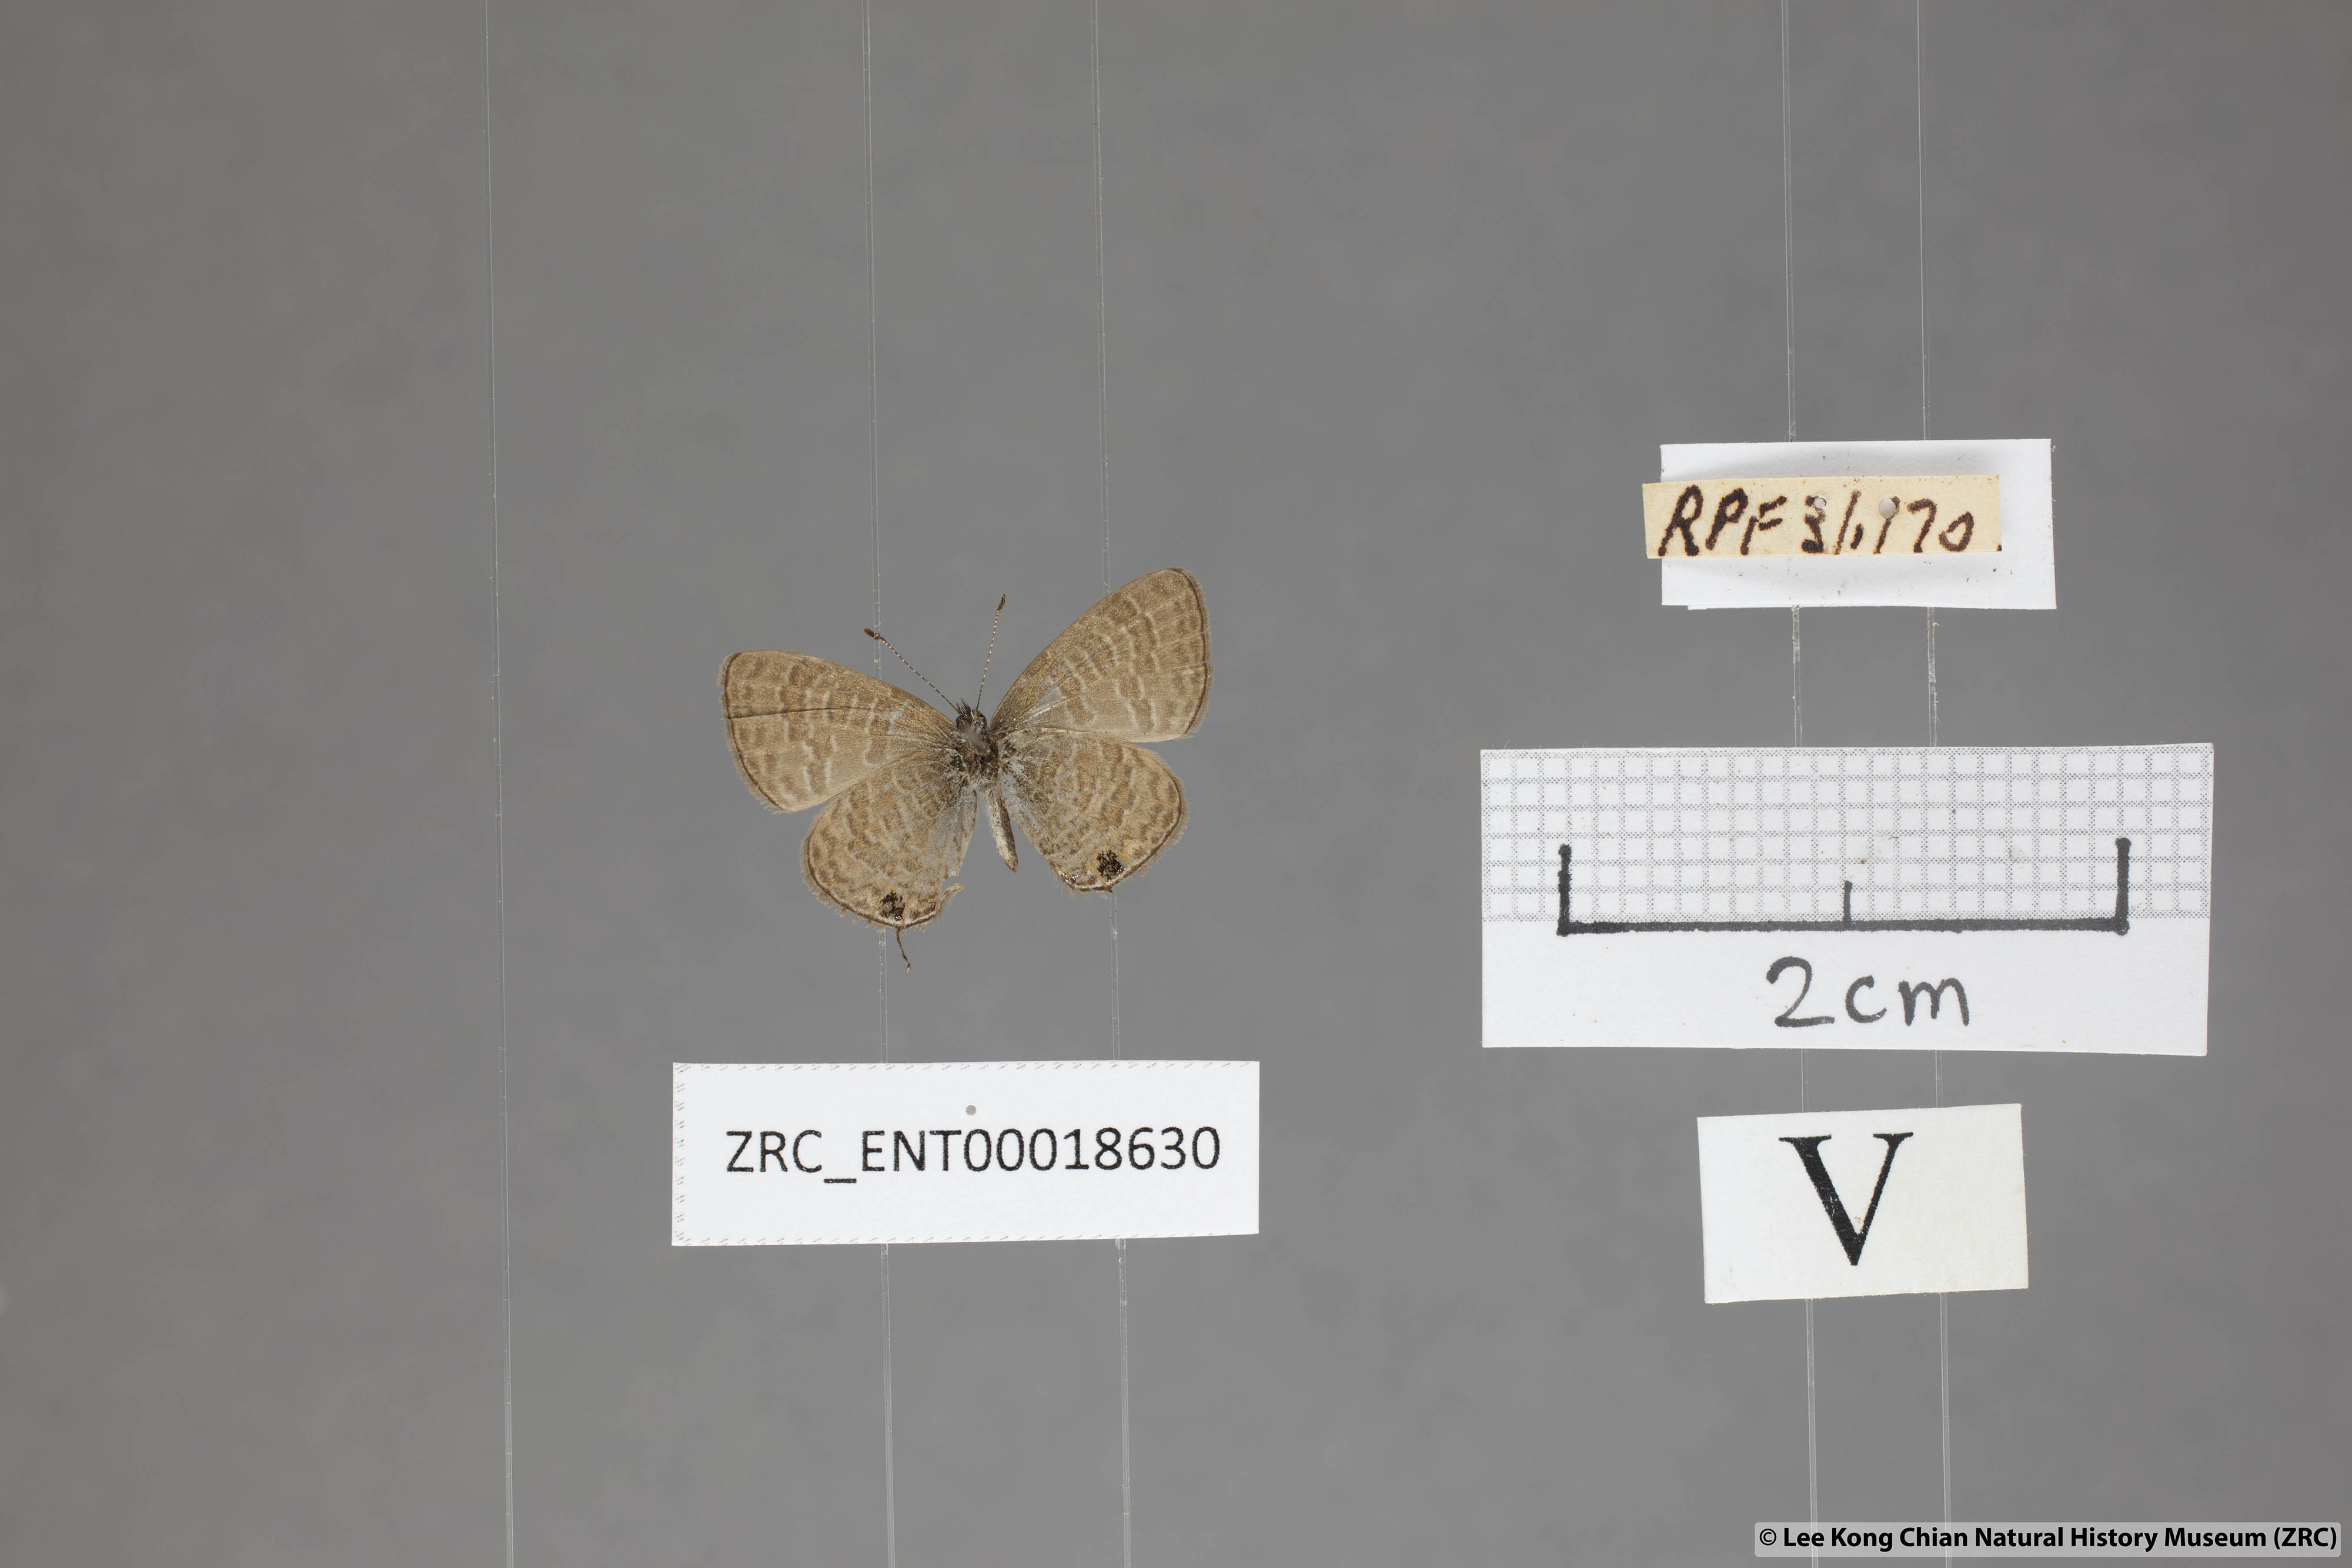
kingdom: Animalia
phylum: Arthropoda
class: Insecta
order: Lepidoptera
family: Lycaenidae
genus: Prosotas
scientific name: Prosotas nora
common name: Common line blue
